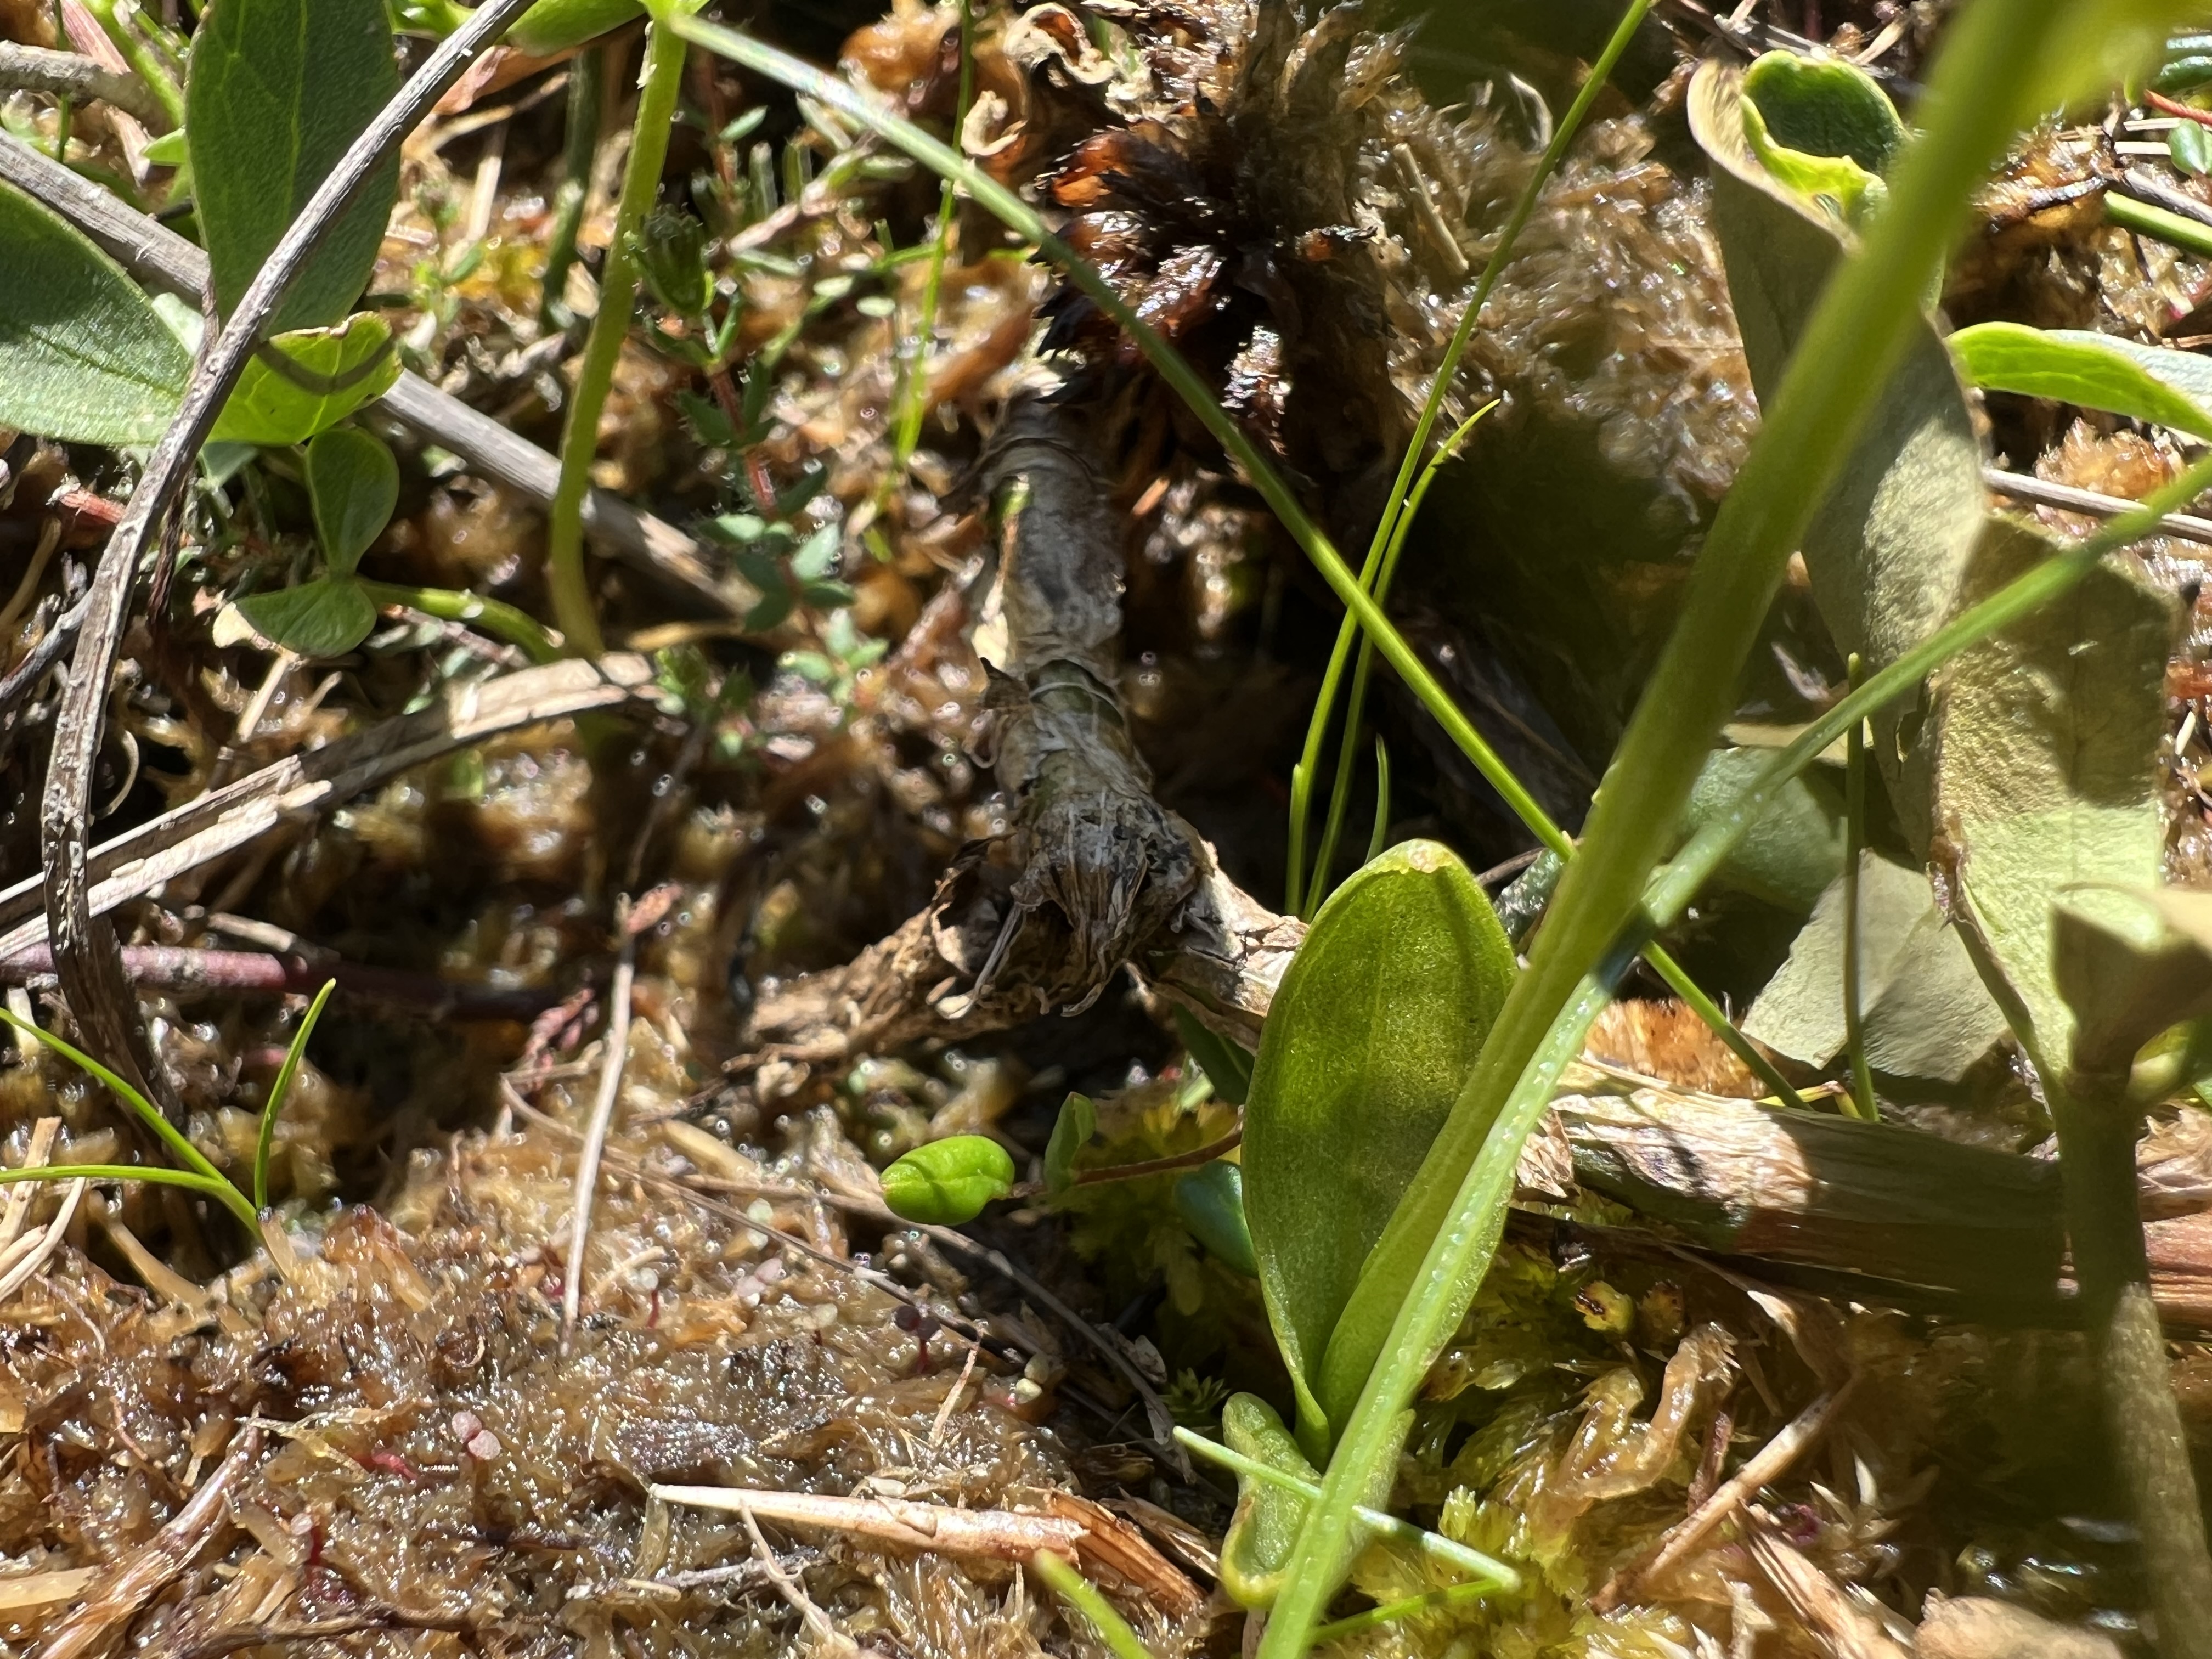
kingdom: Plantae
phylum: Tracheophyta
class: Liliopsida
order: Asparagales
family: Orchidaceae
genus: Hammarbya
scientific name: Hammarbya paludosa
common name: Hjertelæbe
